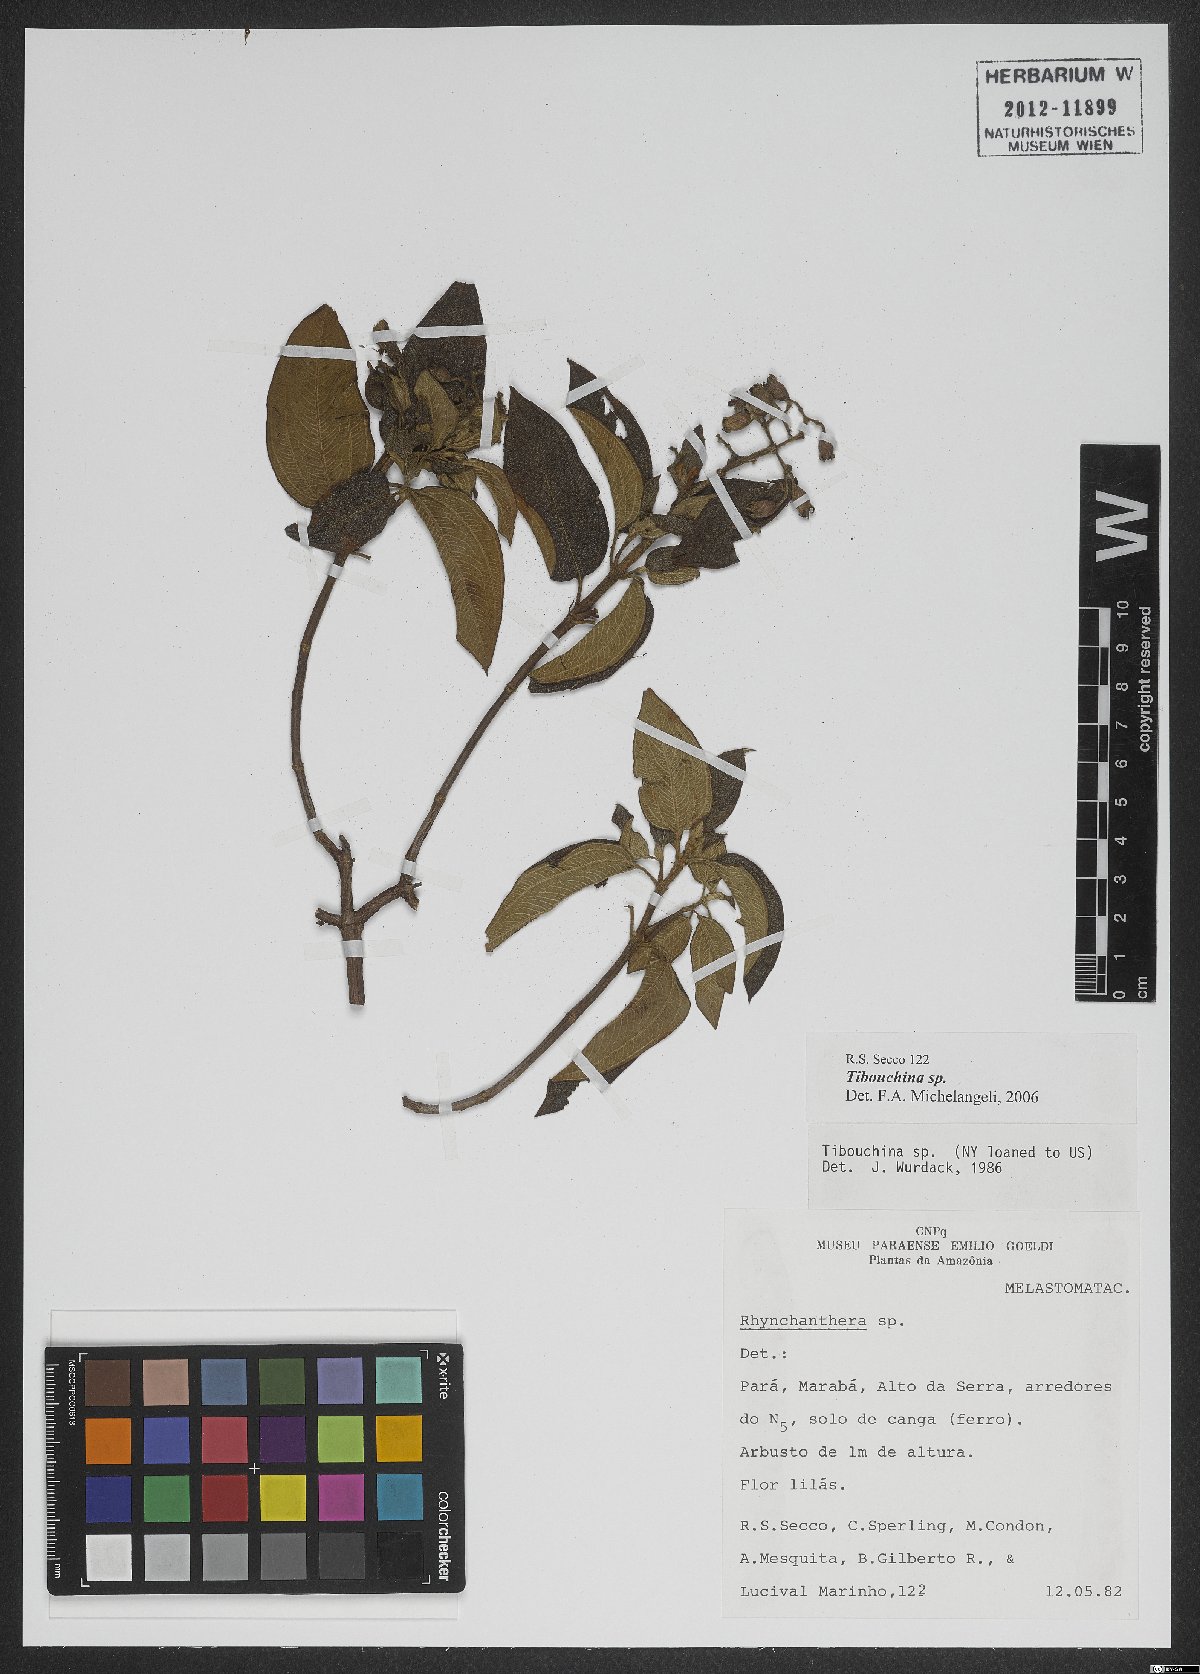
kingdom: Plantae
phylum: Tracheophyta
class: Magnoliopsida
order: Myrtales
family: Melastomataceae
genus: Tibouchina
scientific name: Tibouchina
